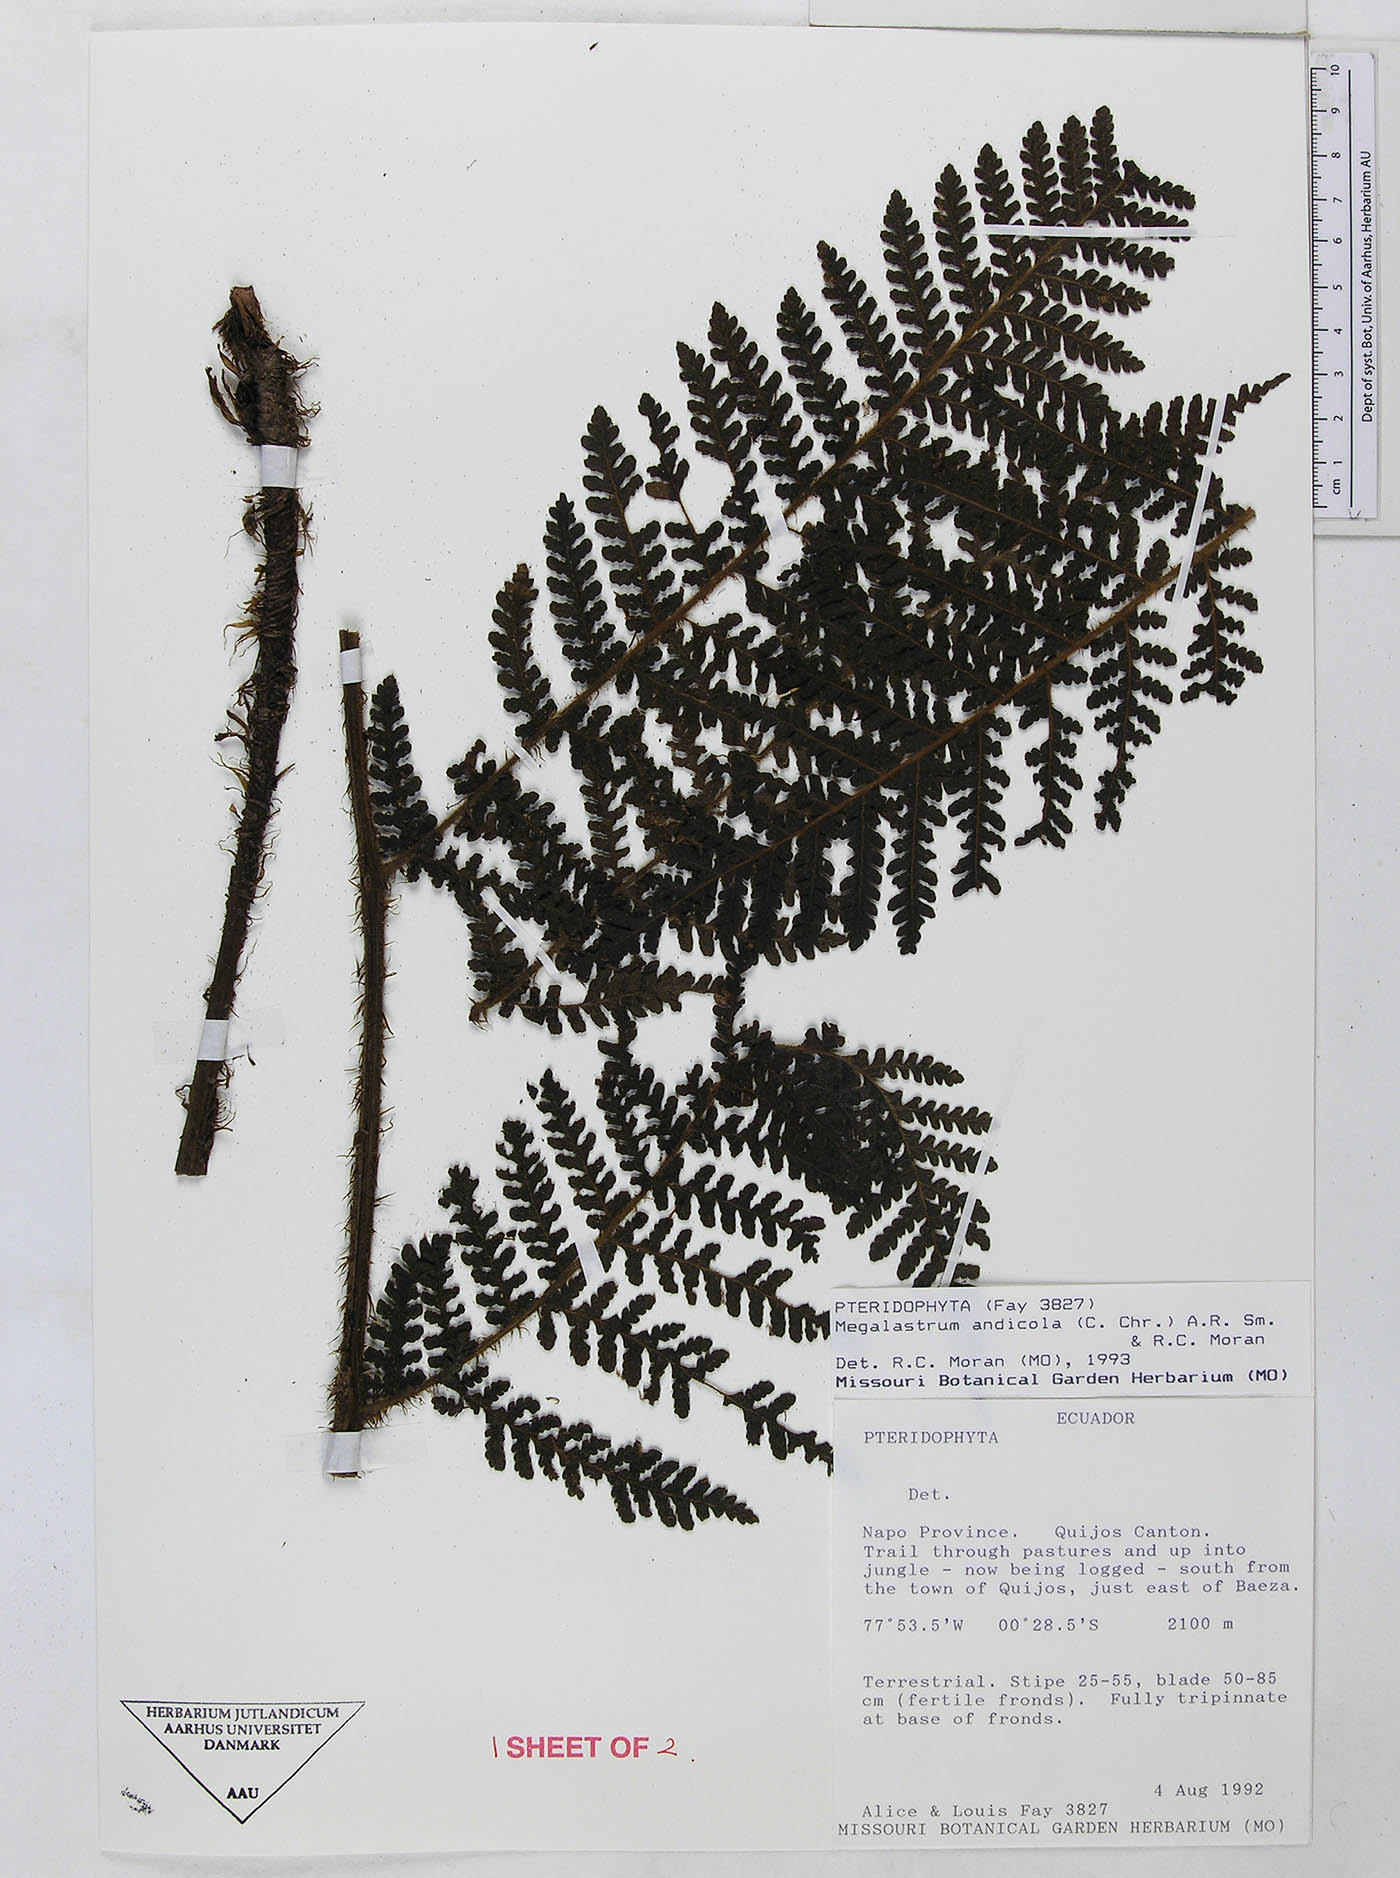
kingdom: Plantae
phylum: Tracheophyta
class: Polypodiopsida
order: Polypodiales
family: Dryopteridaceae
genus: Megalastrum
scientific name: Megalastrum insigne
